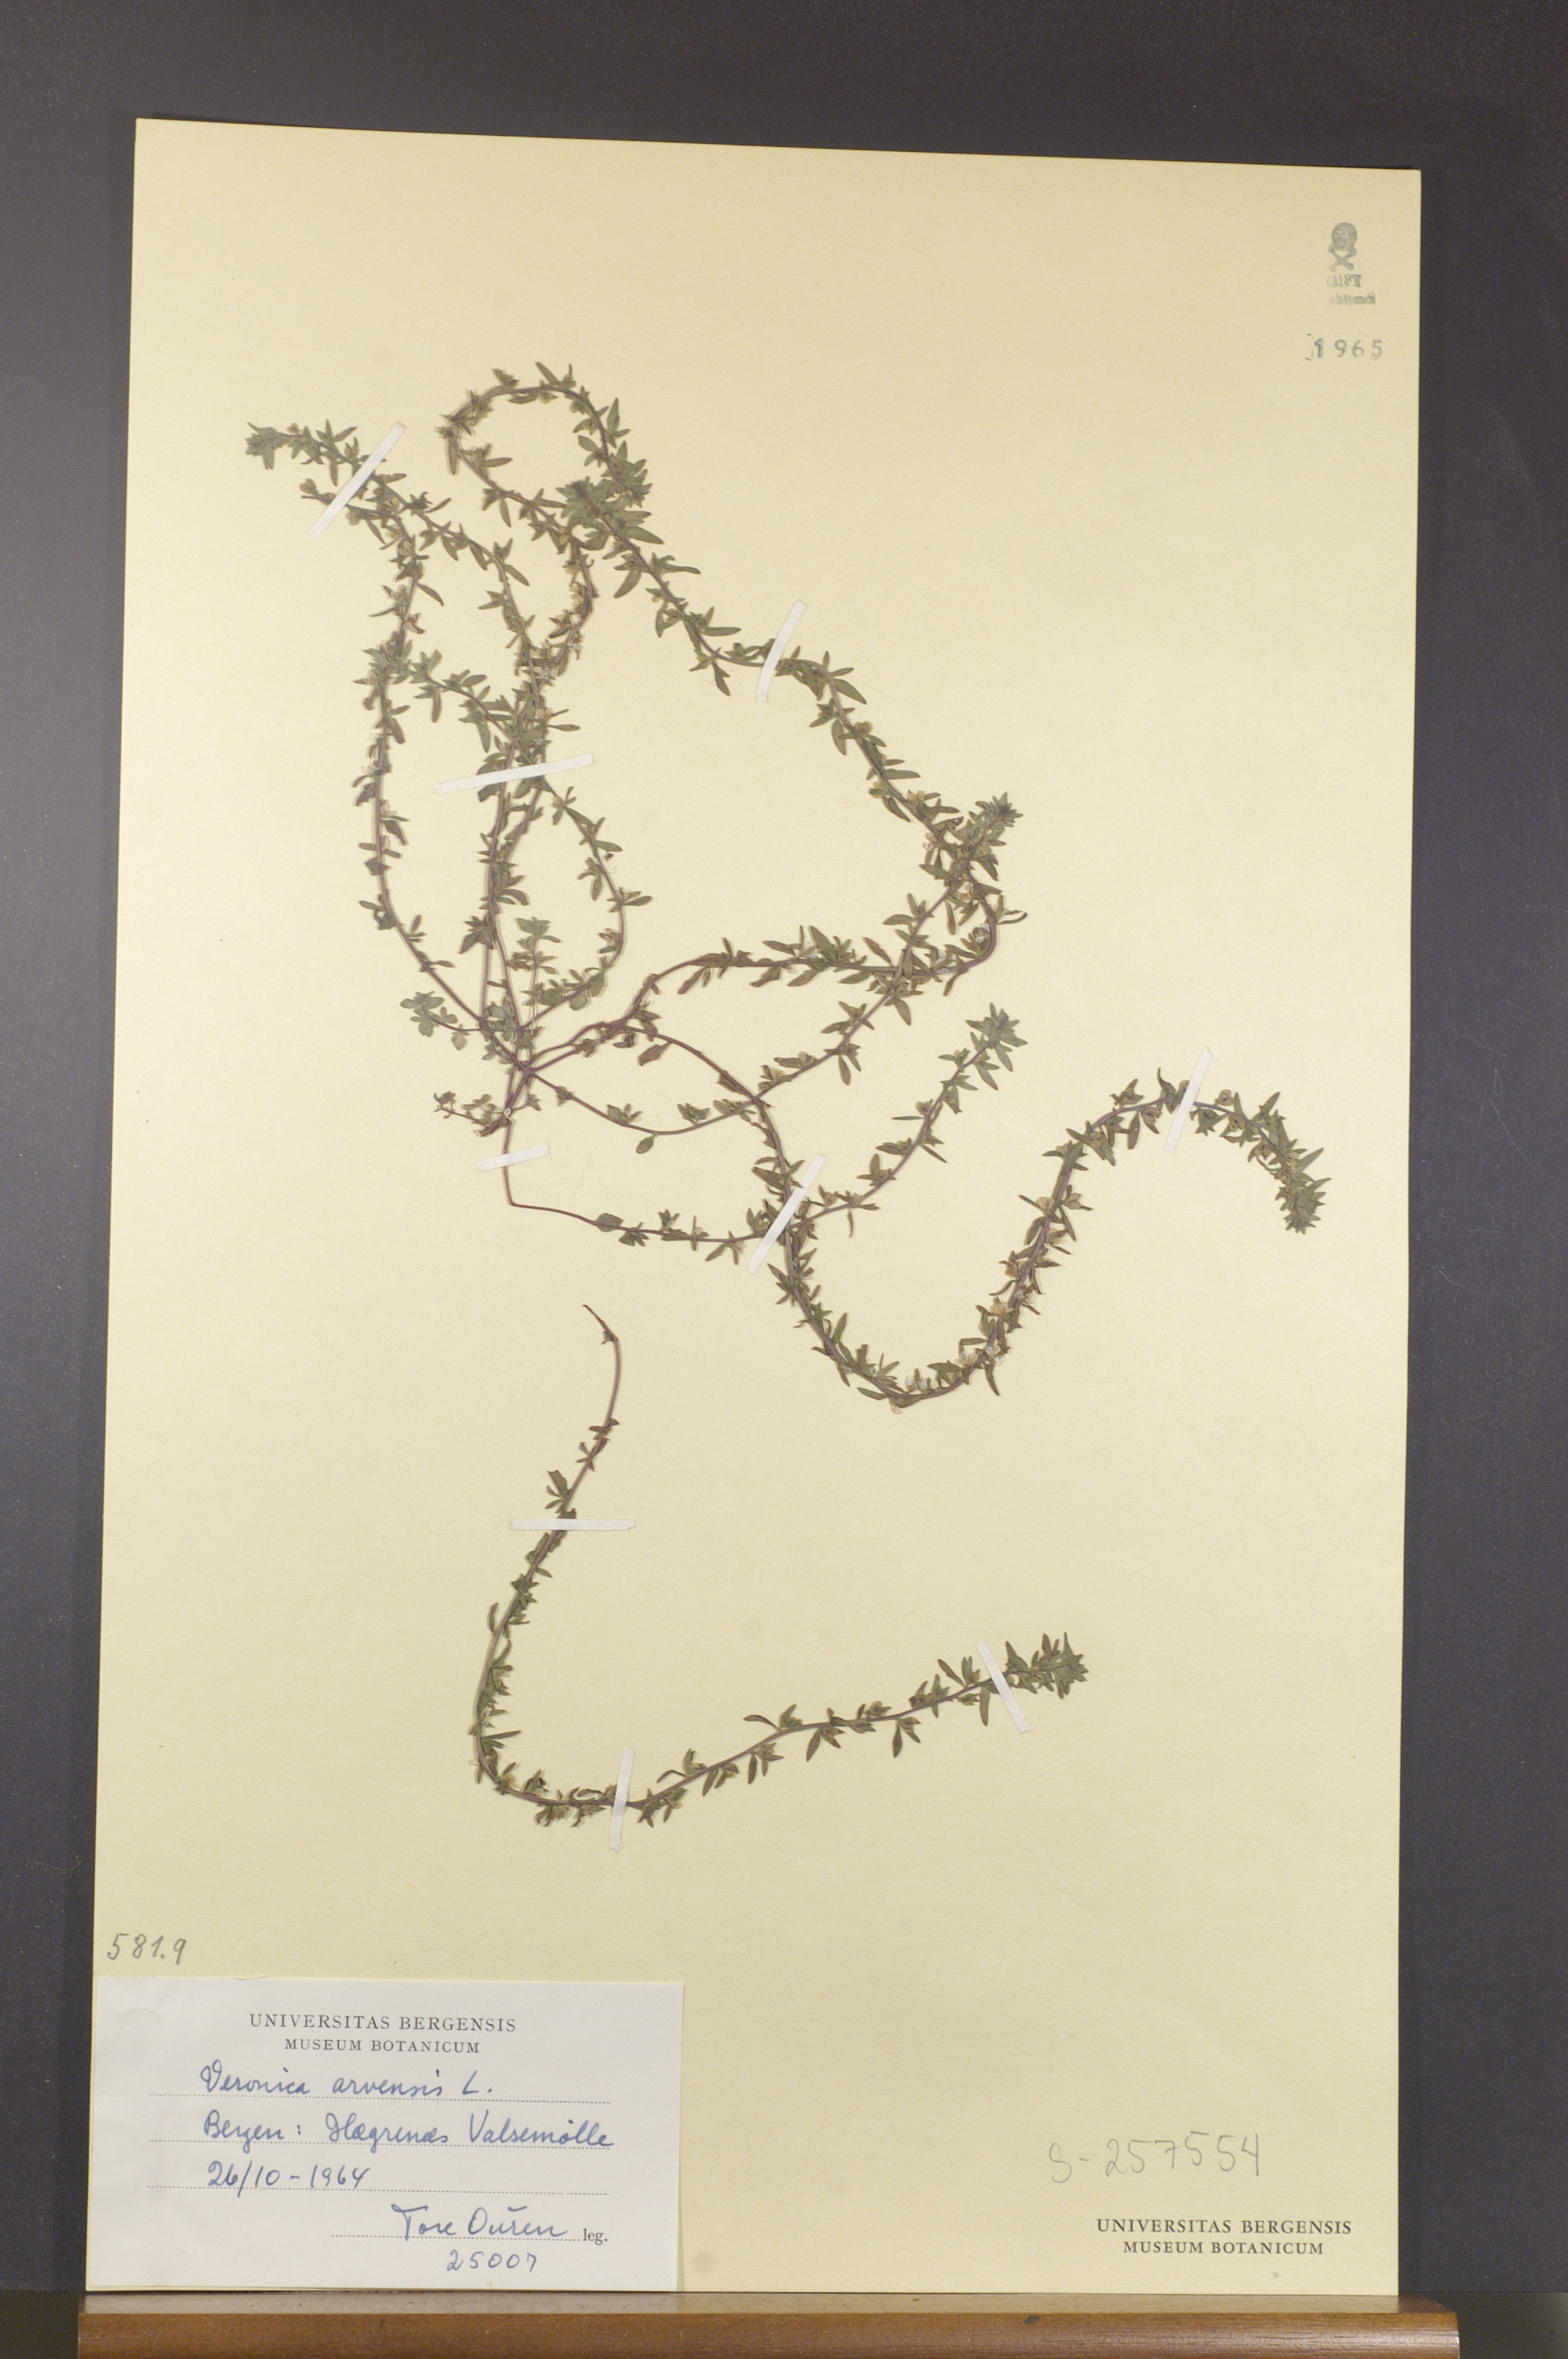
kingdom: Plantae
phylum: Tracheophyta
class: Magnoliopsida
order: Lamiales
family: Plantaginaceae
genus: Veronica
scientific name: Veronica arvensis
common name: Corn speedwell
